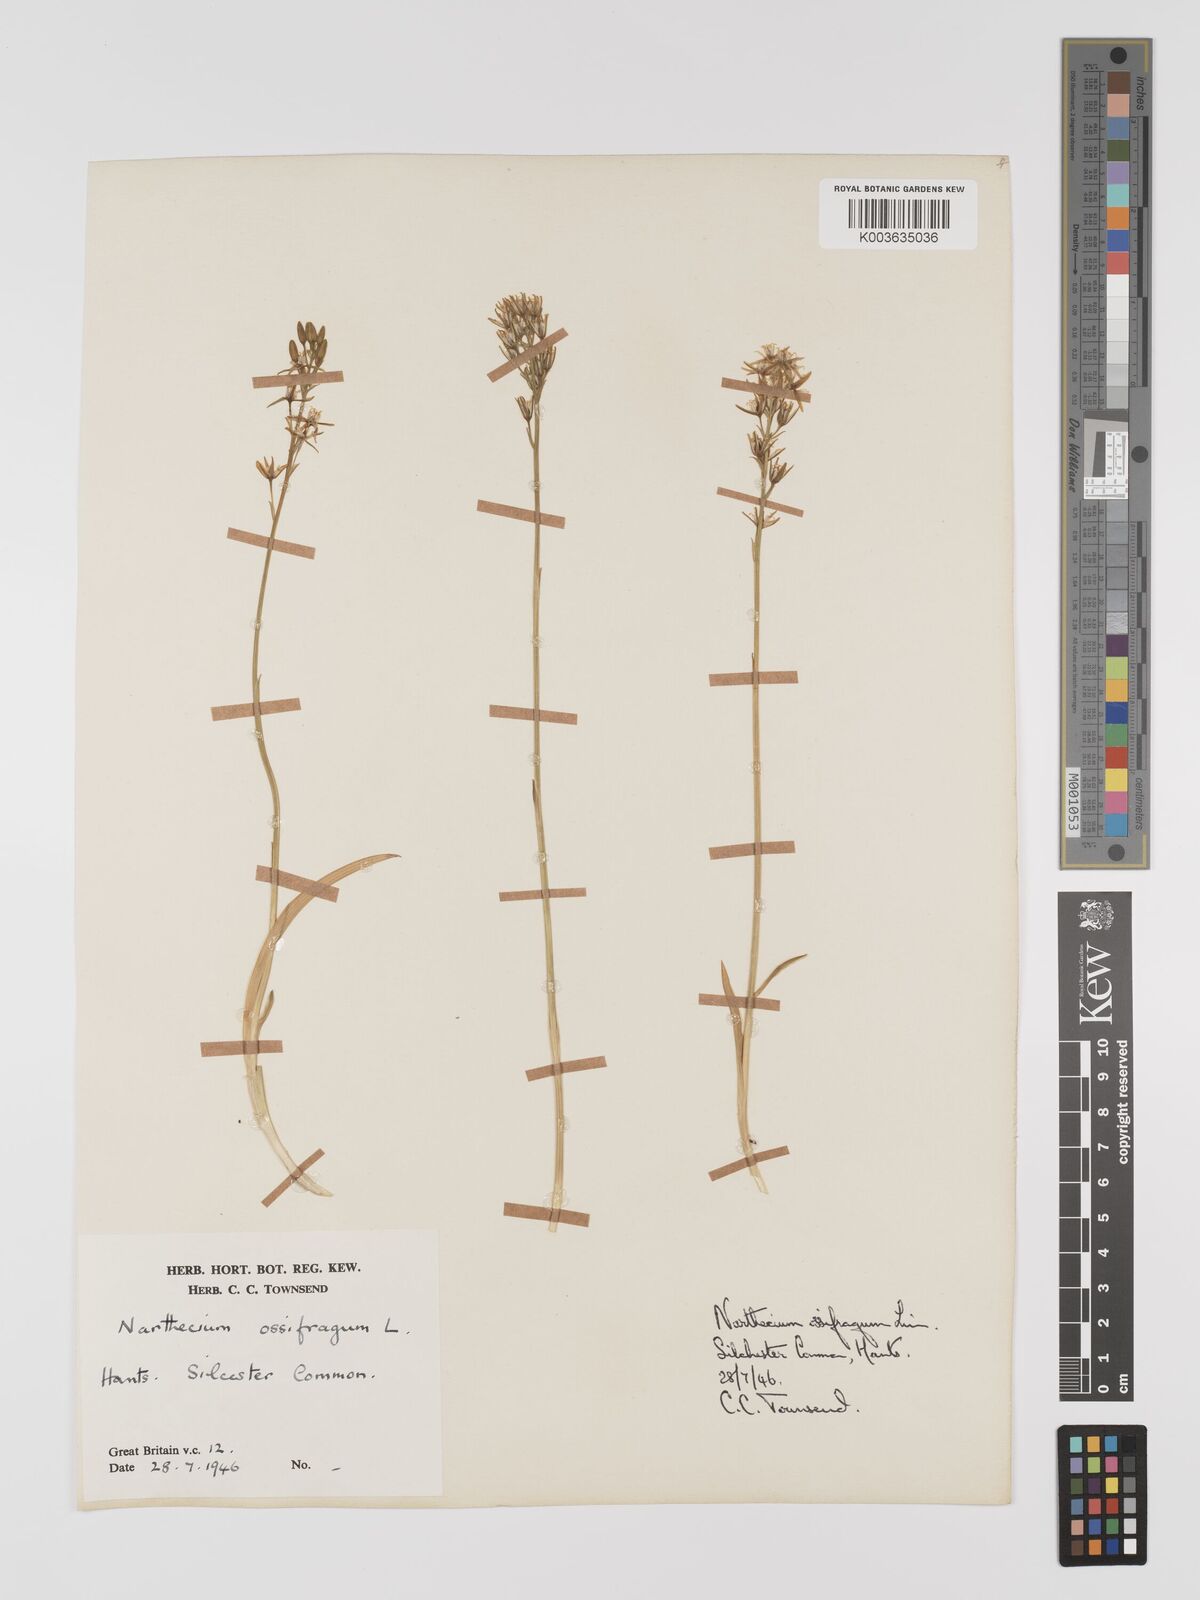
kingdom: Plantae
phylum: Tracheophyta
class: Liliopsida
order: Dioscoreales
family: Nartheciaceae
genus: Narthecium
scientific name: Narthecium
